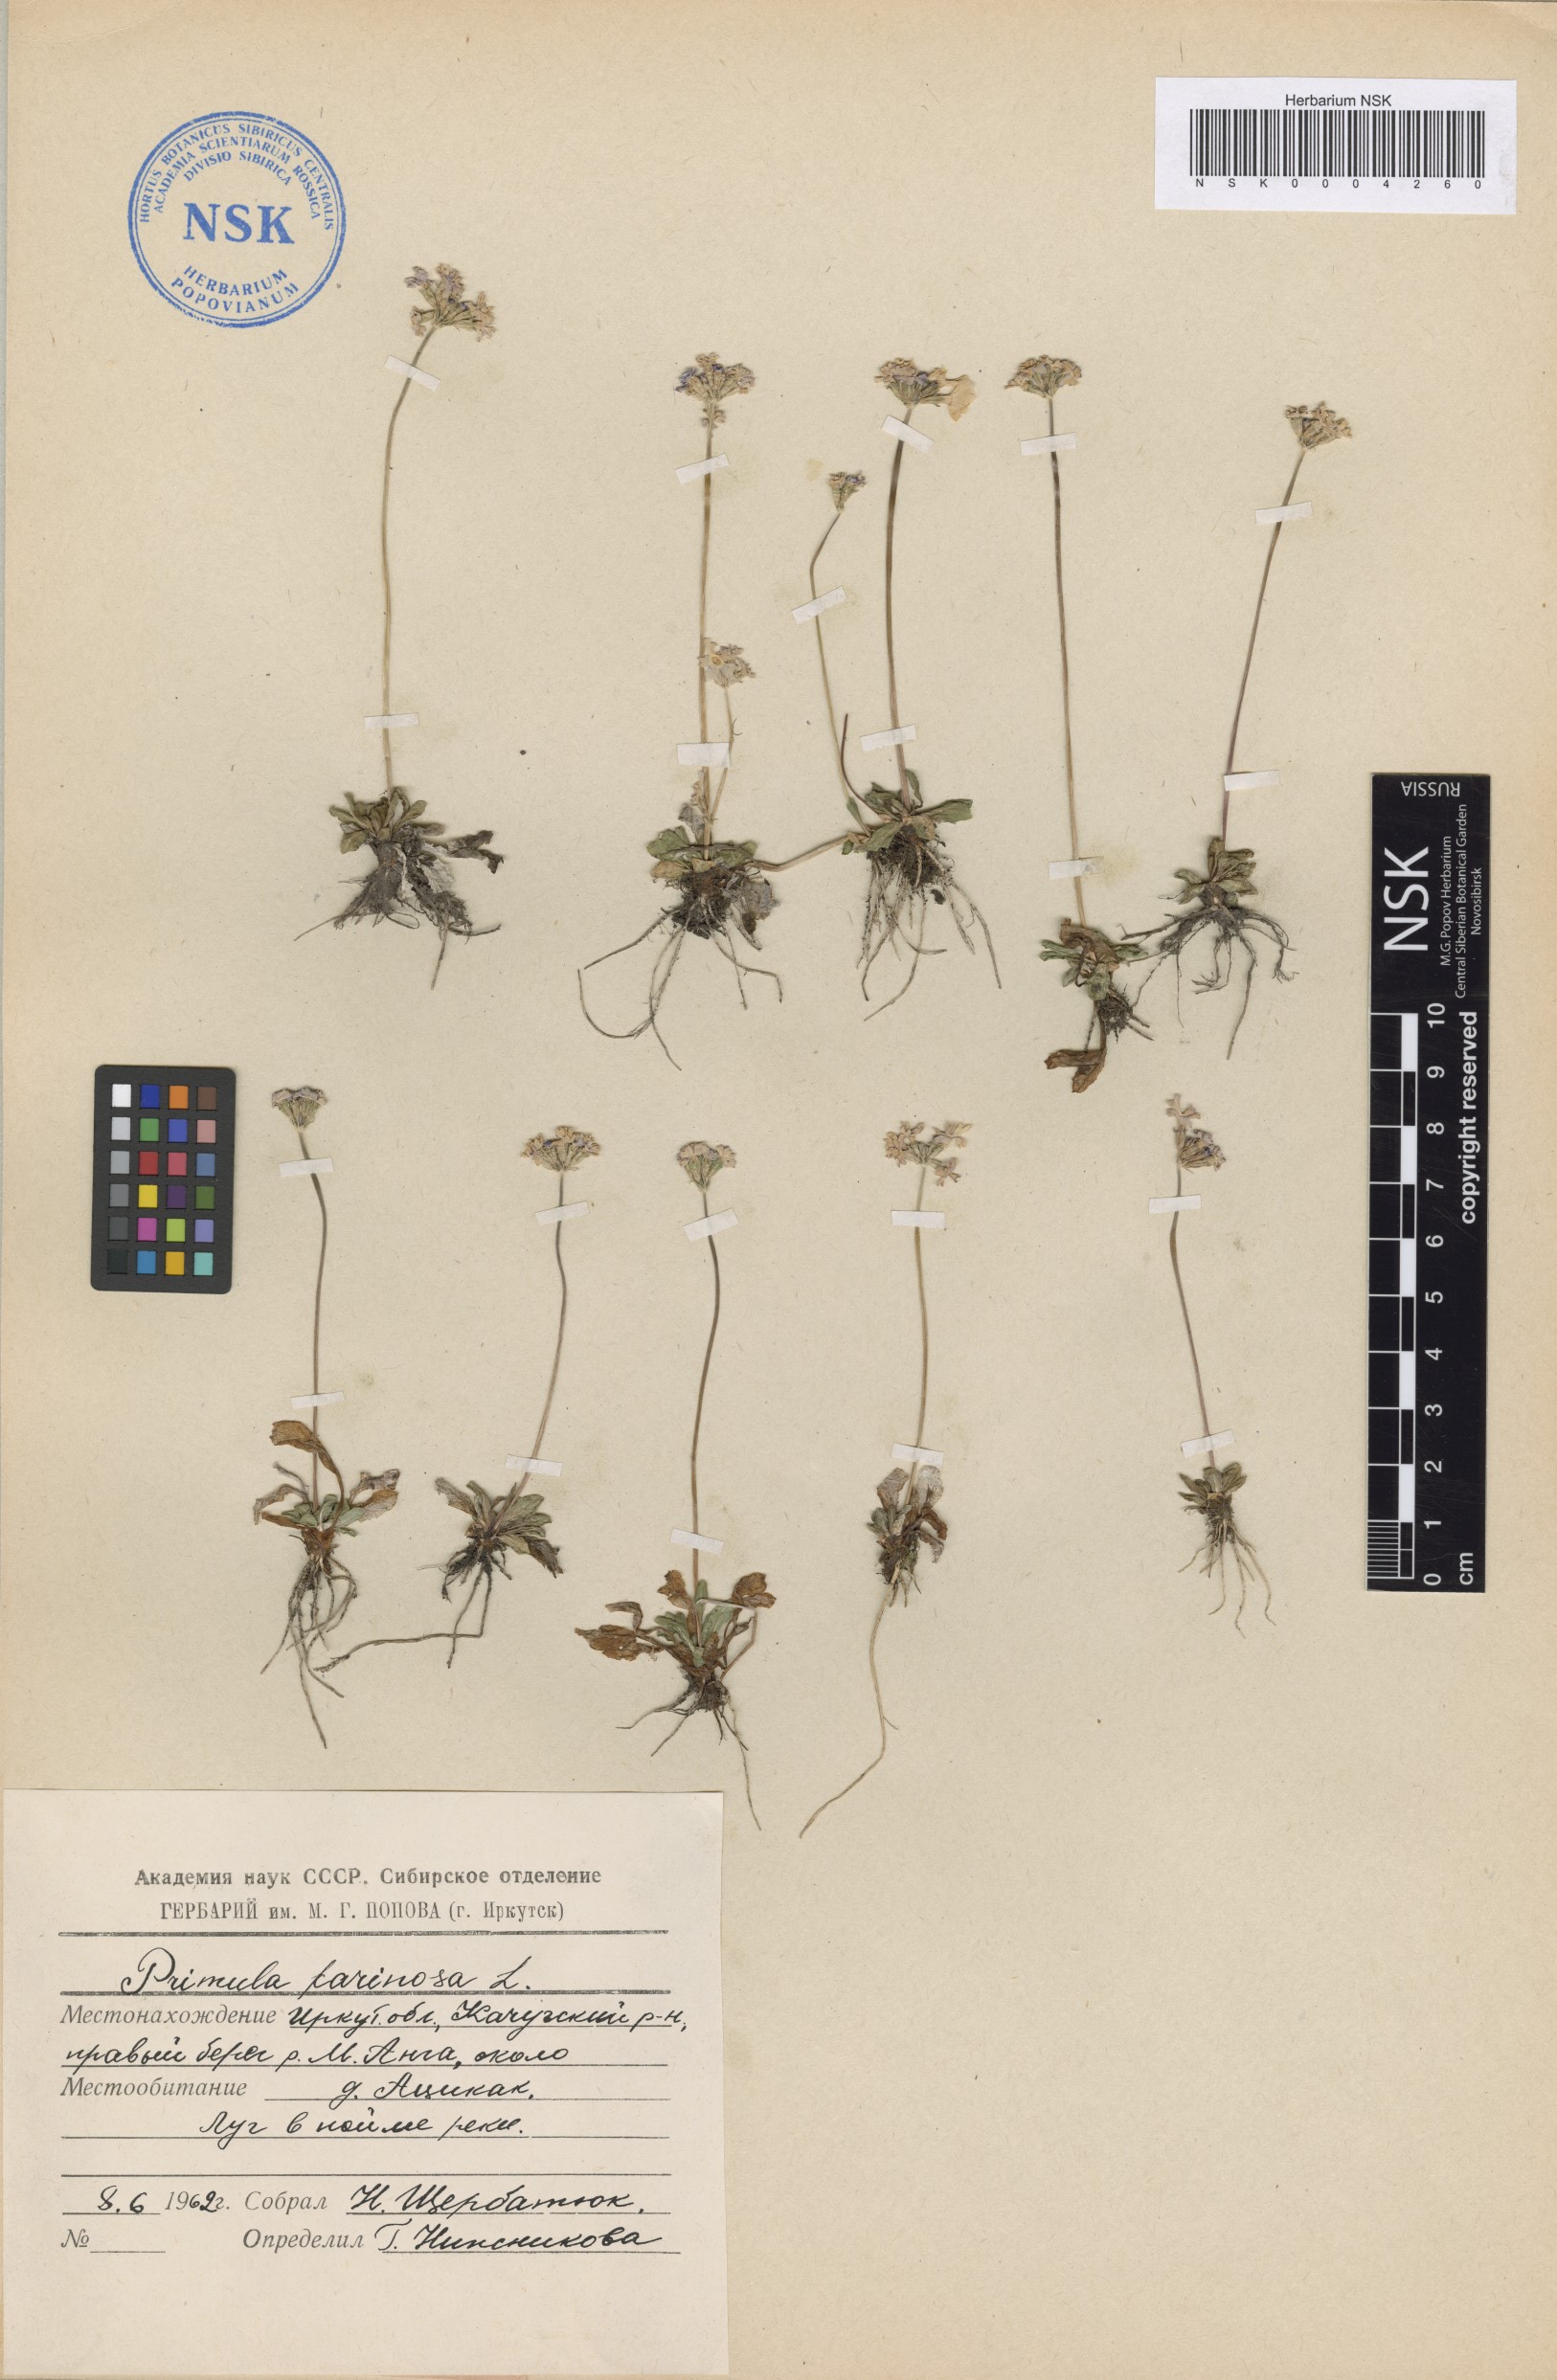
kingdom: Plantae
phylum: Tracheophyta
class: Magnoliopsida
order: Ericales
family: Primulaceae
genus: Primula
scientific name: Primula farinosa
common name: Bird's-eye primrose
